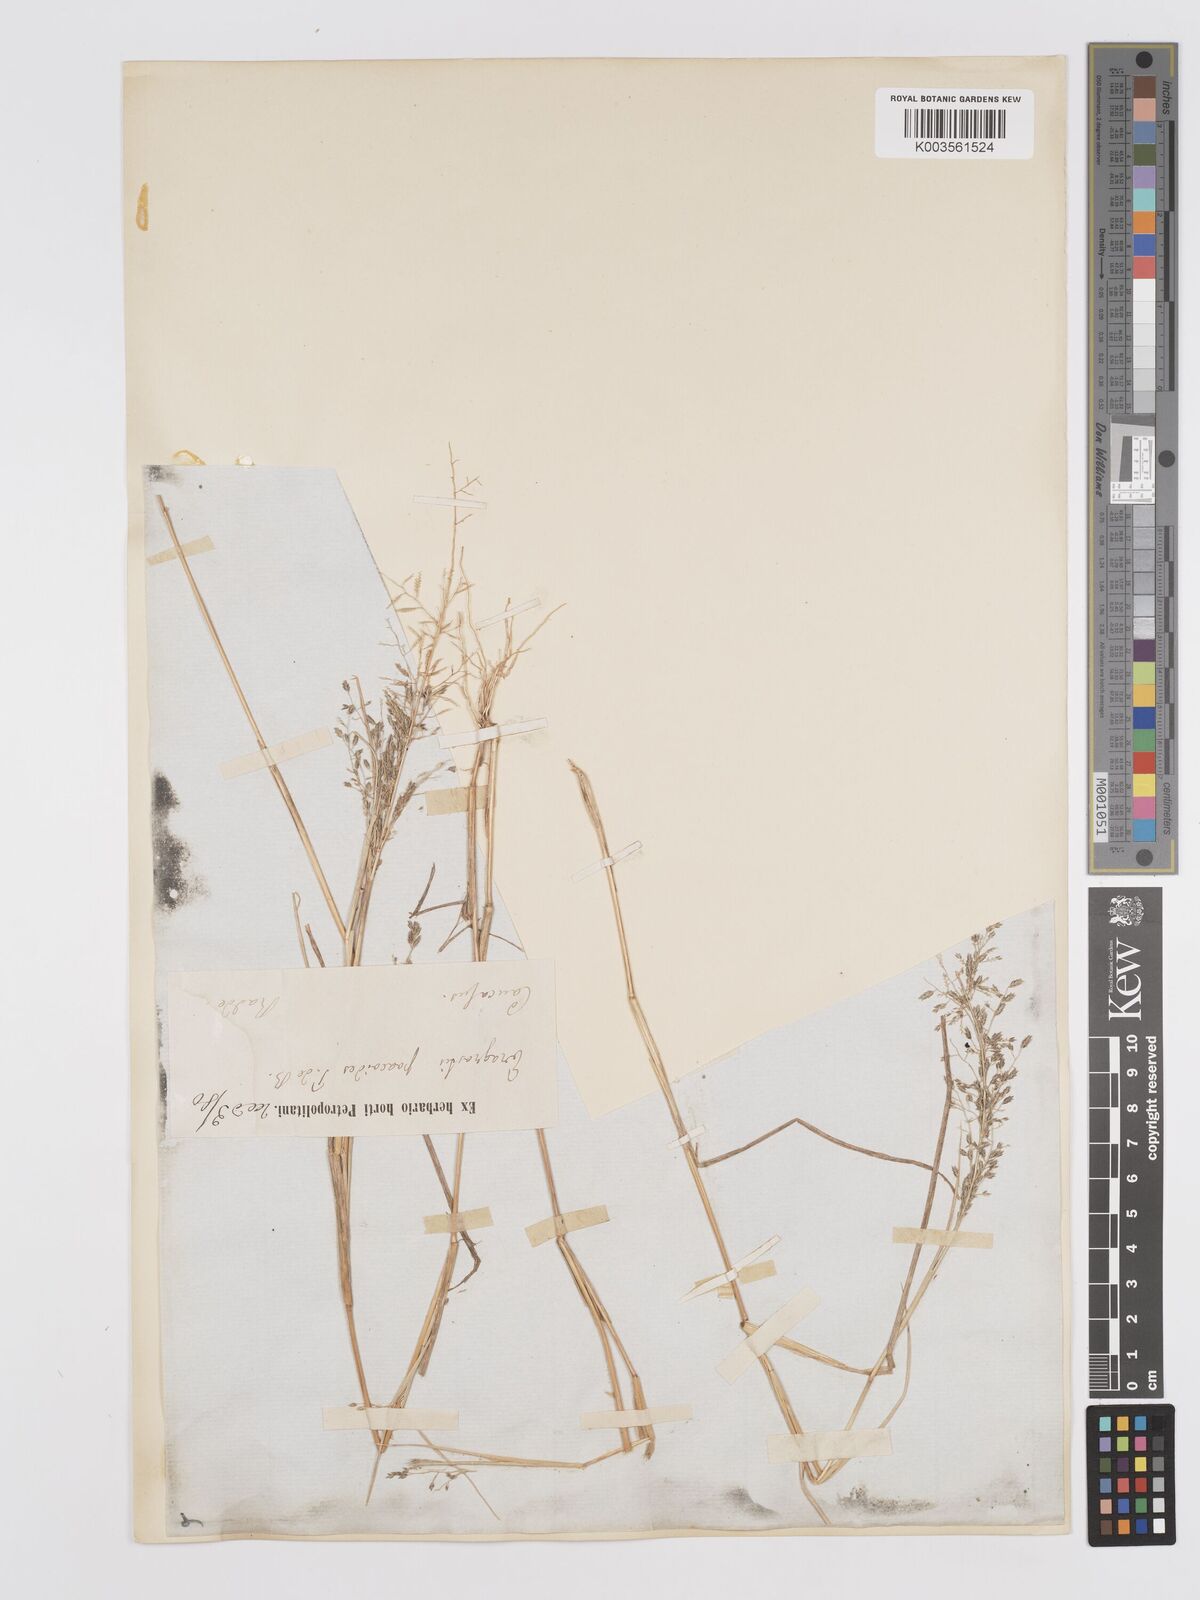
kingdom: Plantae
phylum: Tracheophyta
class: Liliopsida
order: Poales
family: Poaceae
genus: Eragrostis
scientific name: Eragrostis minor
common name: Small love-grass
